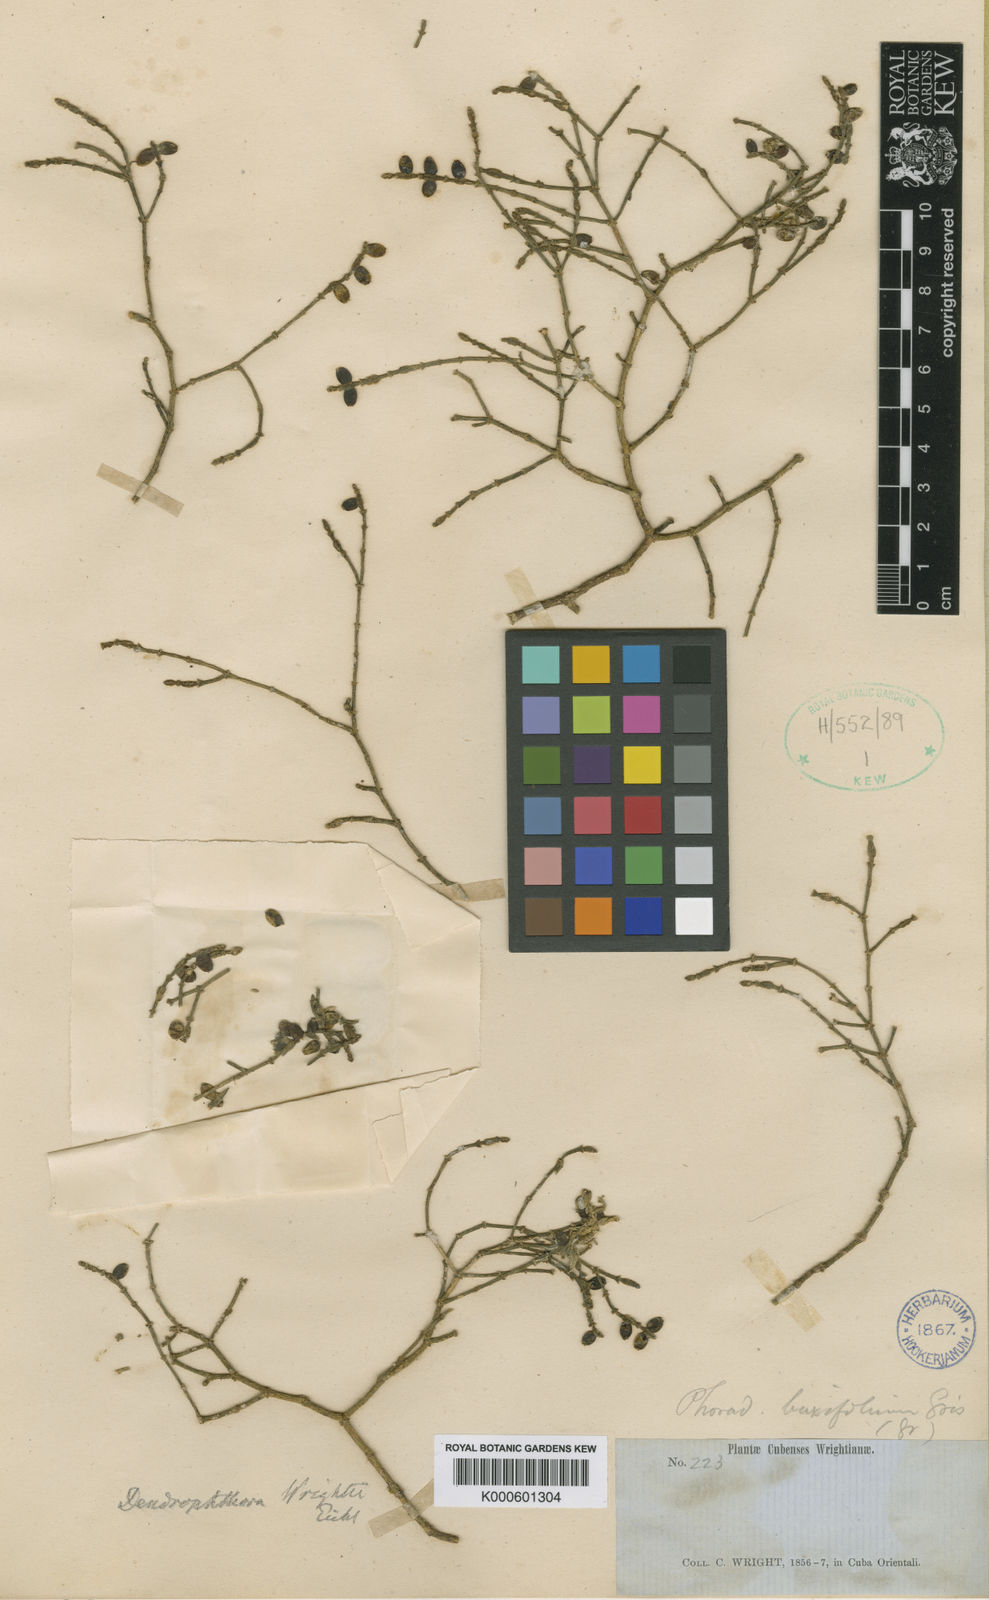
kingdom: Plantae
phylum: Tracheophyta
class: Magnoliopsida
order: Santalales
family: Viscaceae
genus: Dendrophthora
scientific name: Dendrophthora flagelliformis
